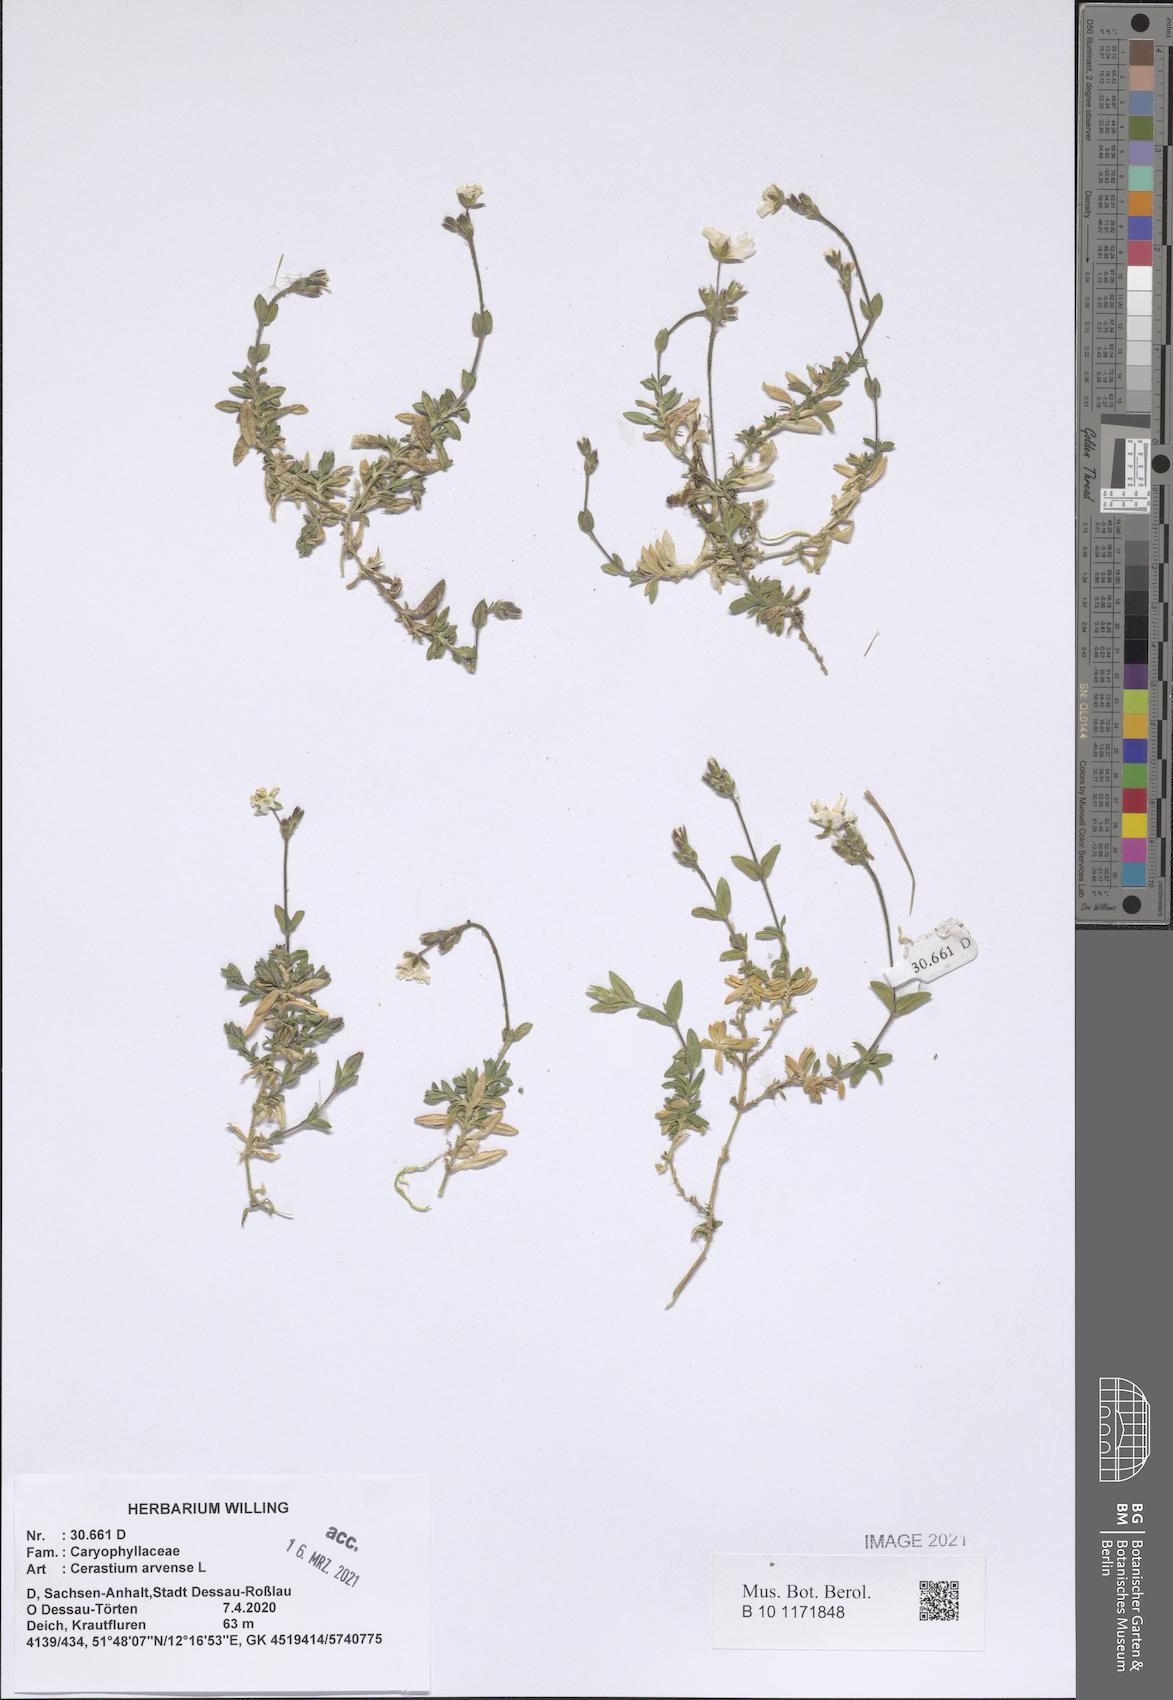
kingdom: Plantae
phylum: Tracheophyta
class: Magnoliopsida
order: Caryophyllales
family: Caryophyllaceae
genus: Cerastium
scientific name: Cerastium arvense
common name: Field mouse-ear
